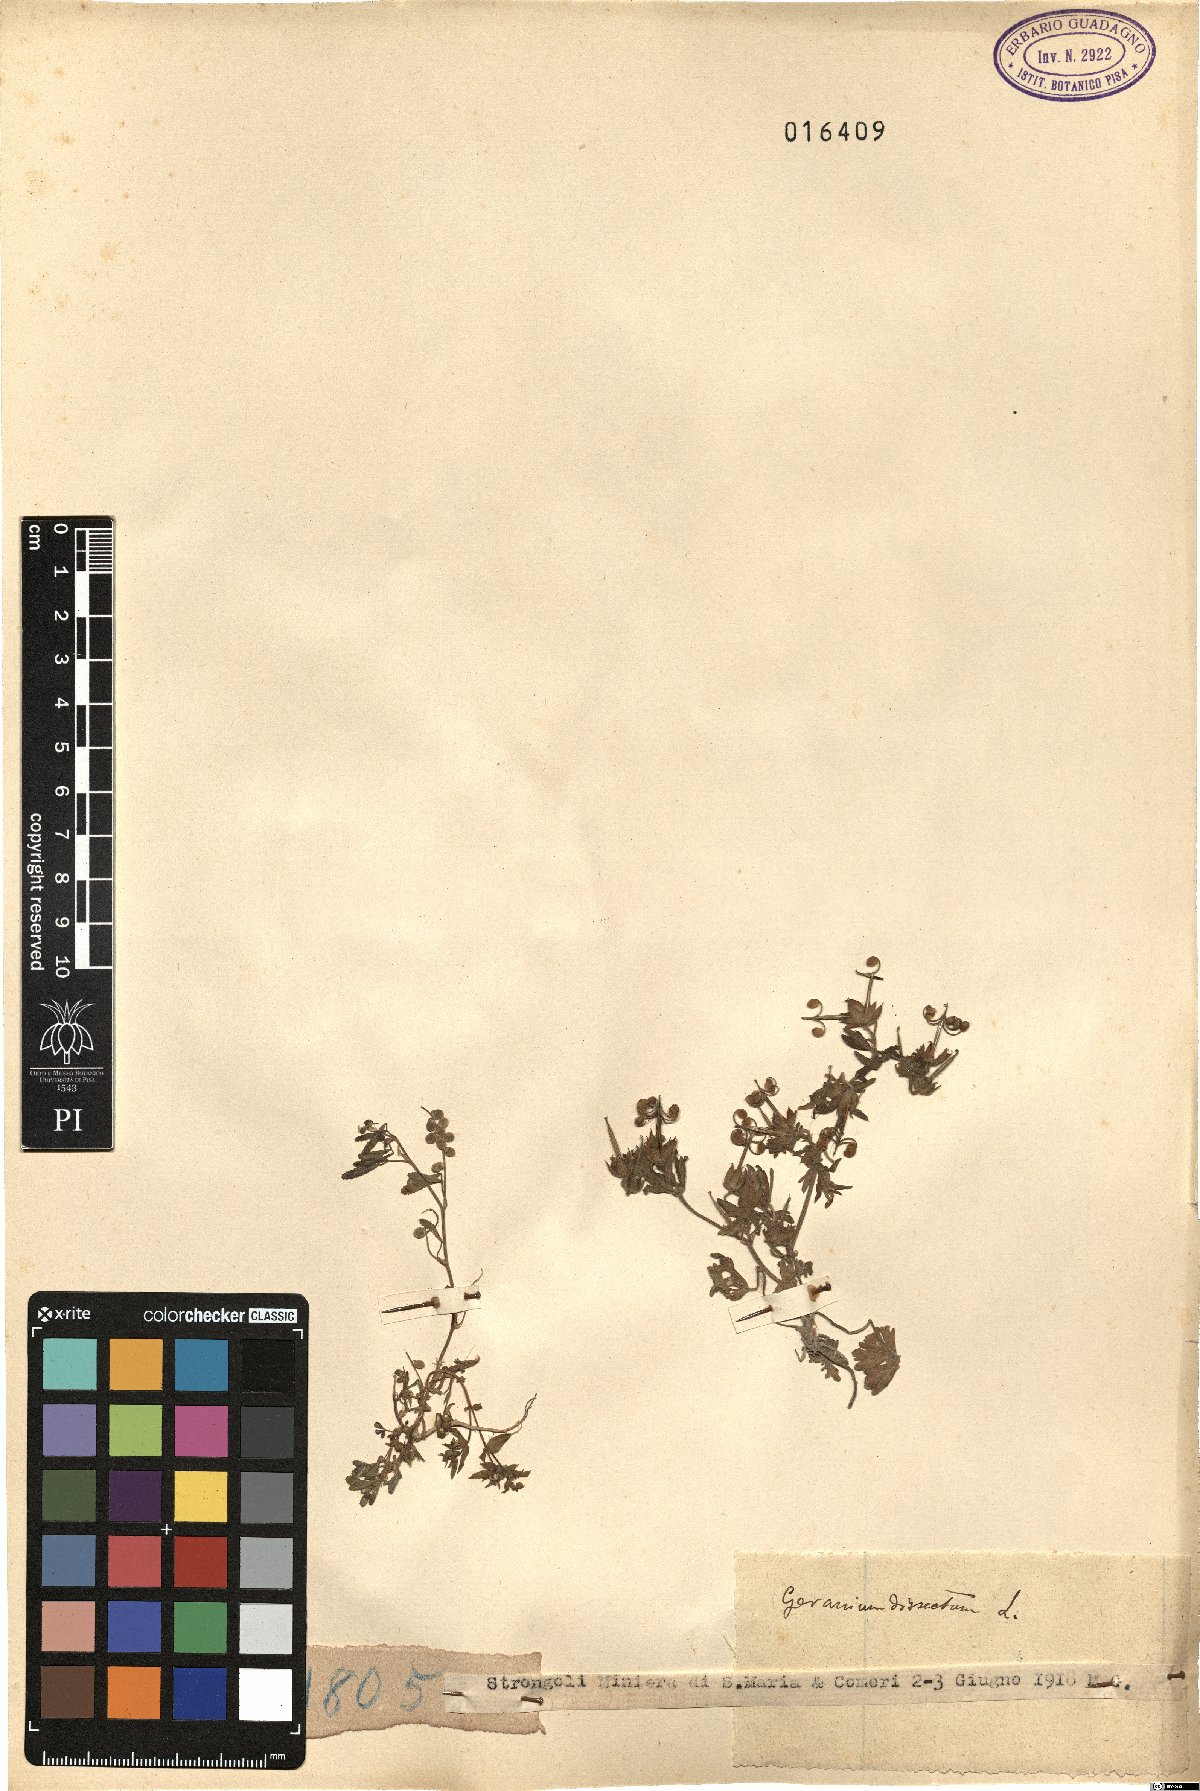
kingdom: Plantae
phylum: Tracheophyta
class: Magnoliopsida
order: Geraniales
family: Geraniaceae
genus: Geranium
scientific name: Geranium dissectum
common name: Cut-leaved crane's-bill
